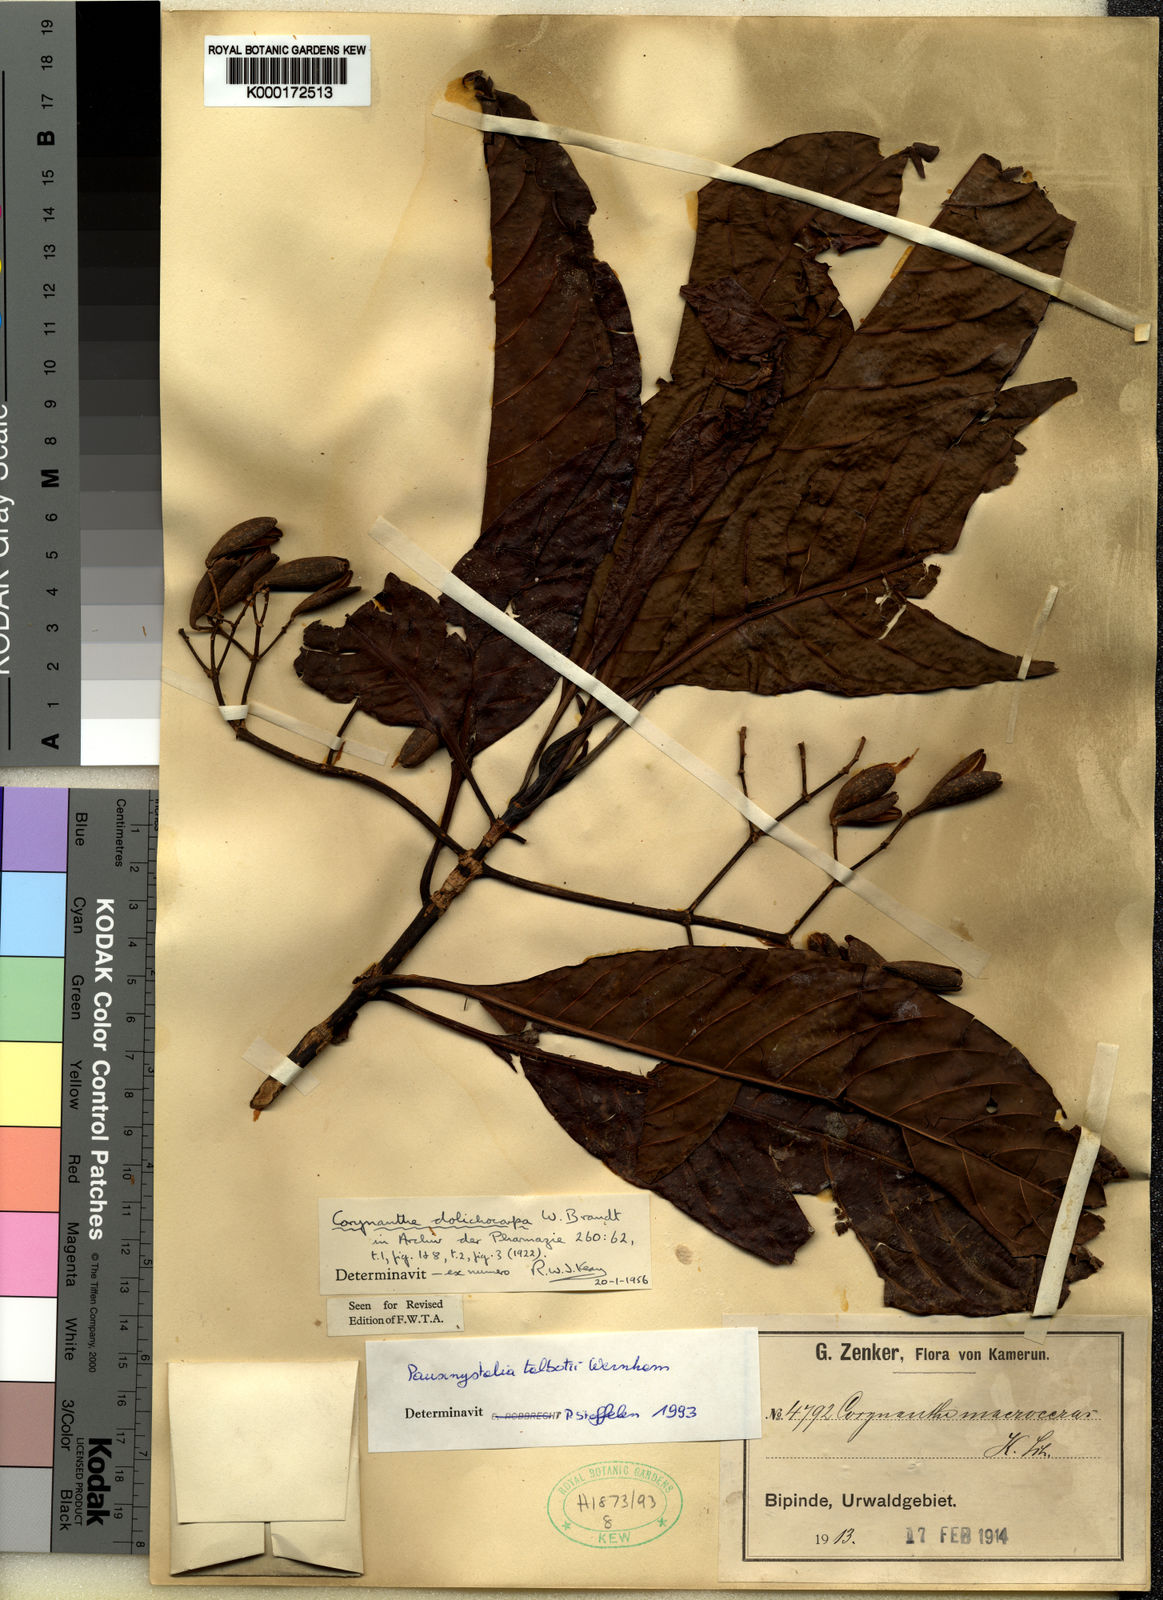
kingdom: Plantae
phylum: Tracheophyta
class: Magnoliopsida
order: Gentianales
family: Rubiaceae
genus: Corynanthe
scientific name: Corynanthe talbotii
